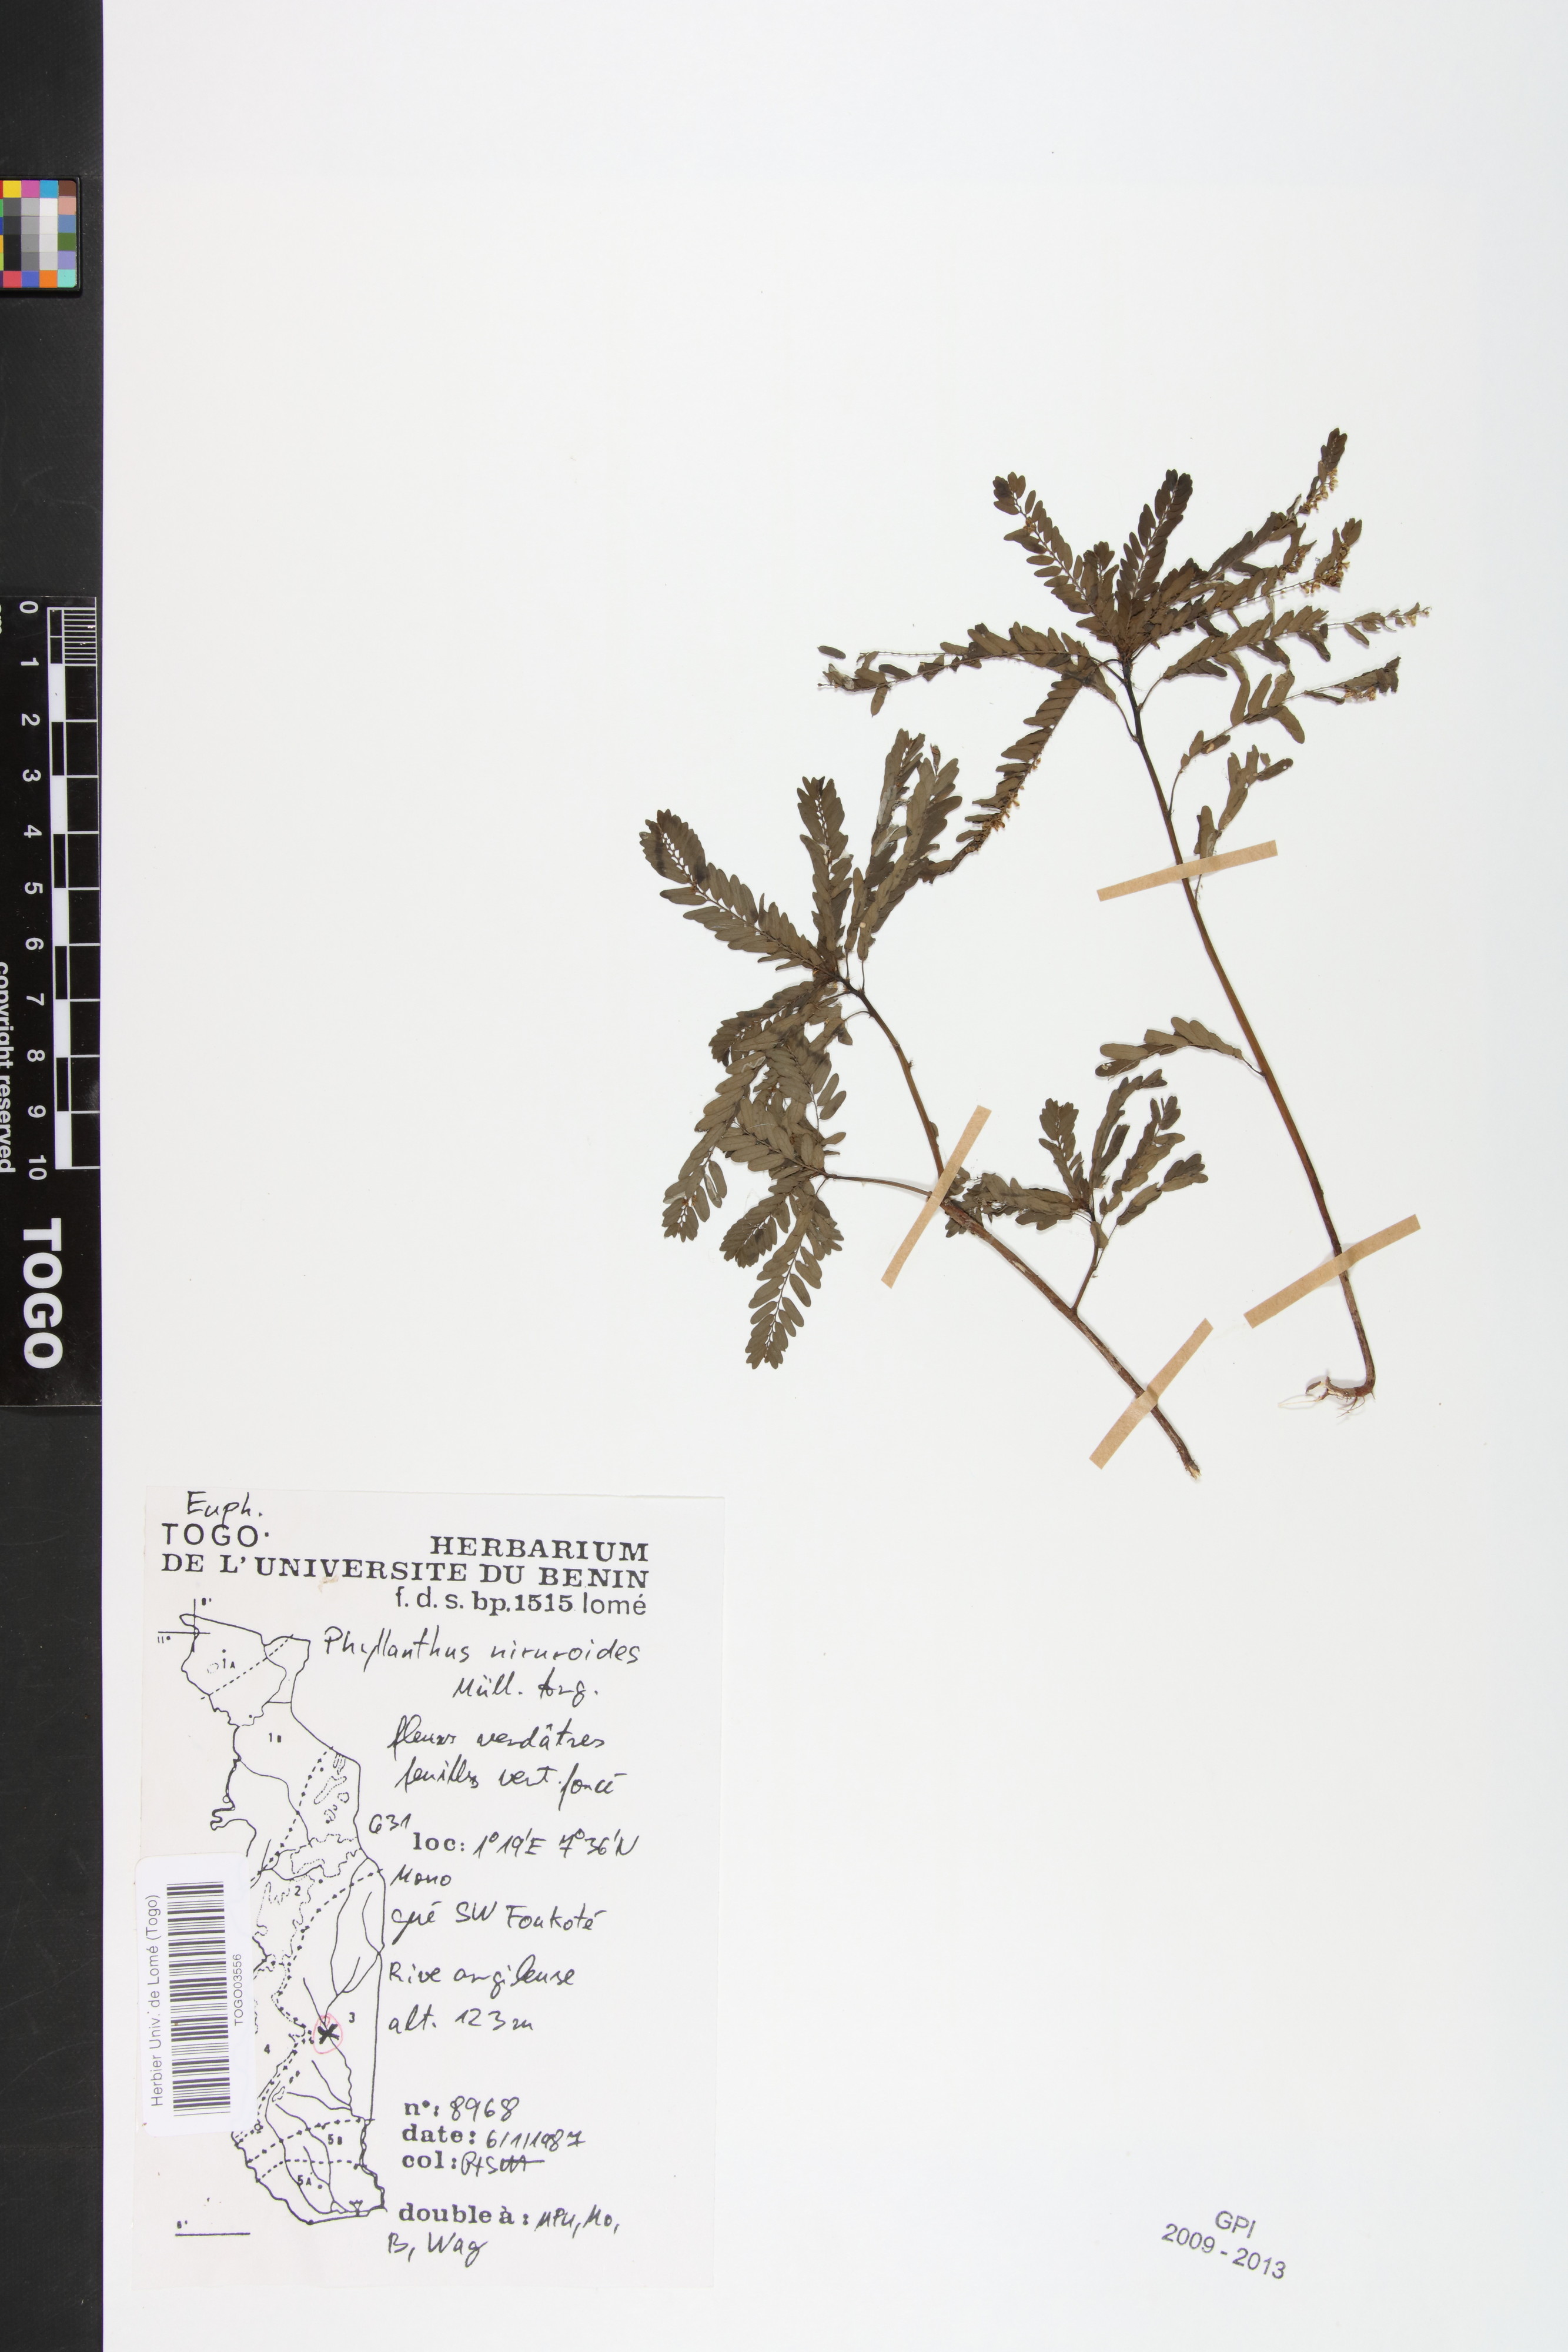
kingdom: Plantae
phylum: Tracheophyta
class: Magnoliopsida
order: Malpighiales
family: Phyllanthaceae
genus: Phyllanthus
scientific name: Phyllanthus niruroides
